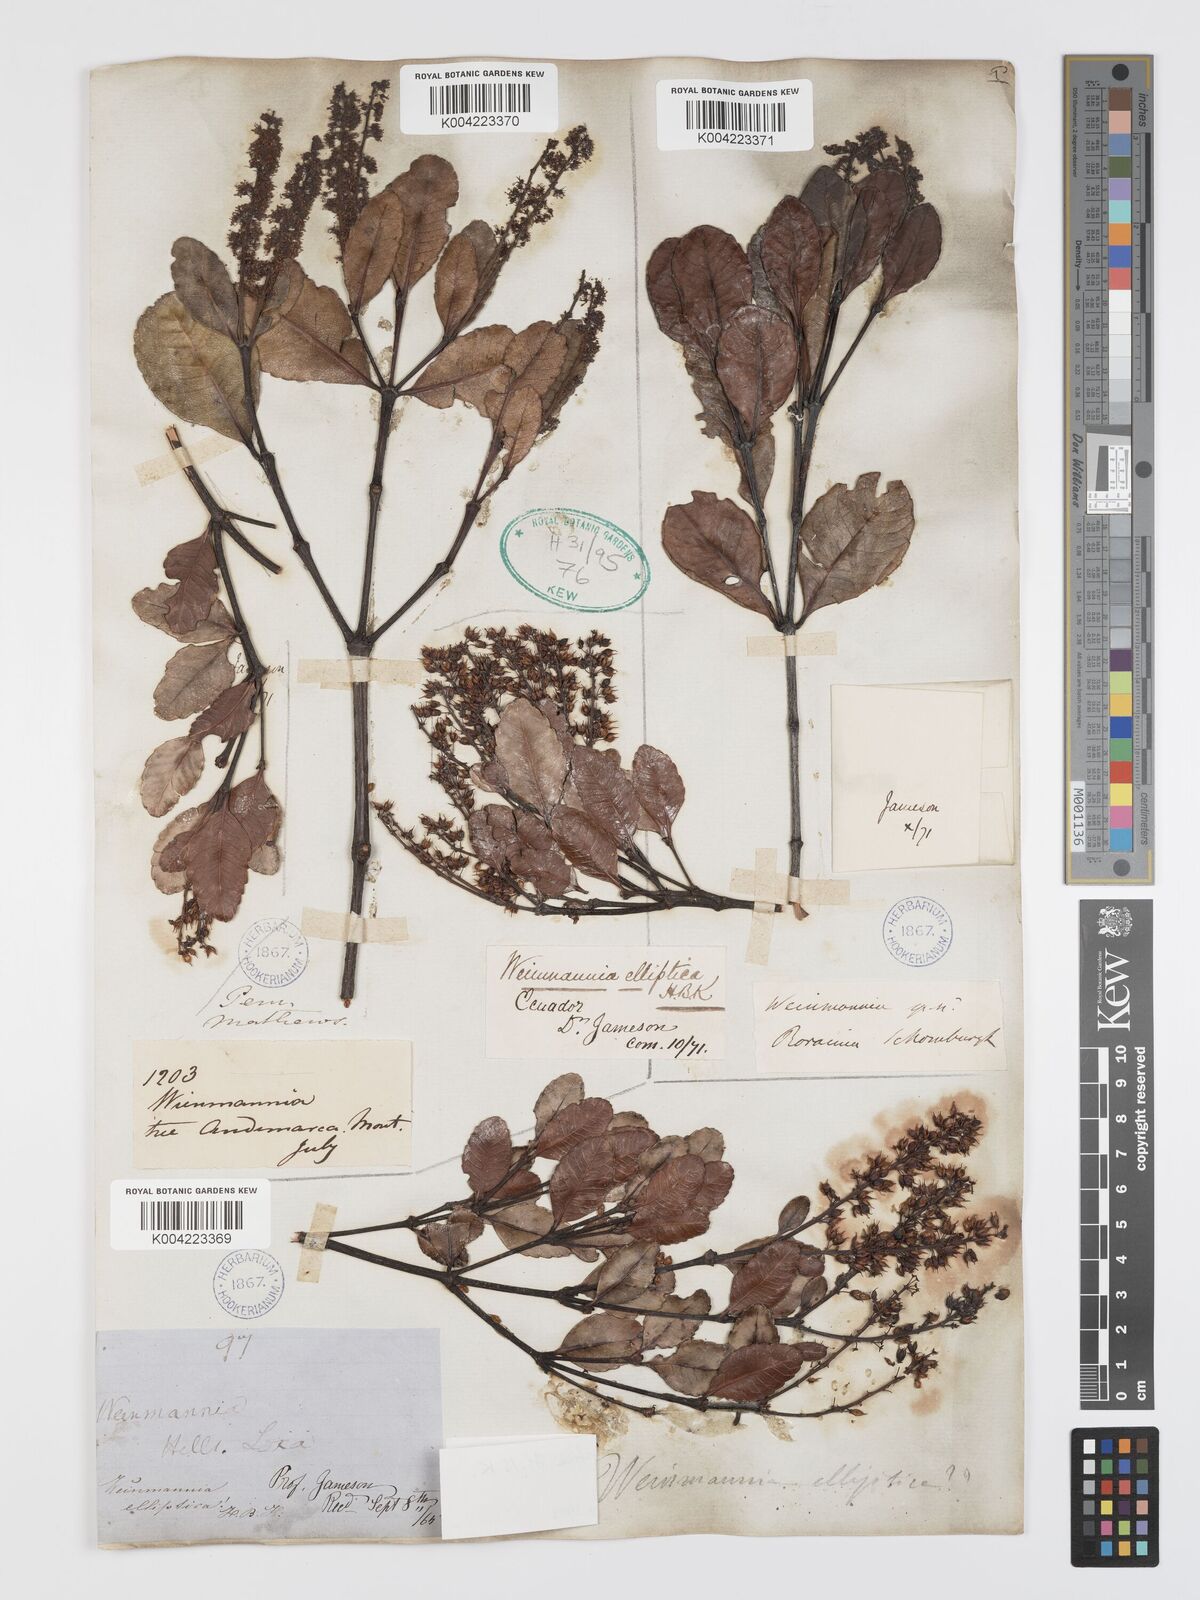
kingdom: Plantae
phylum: Tracheophyta
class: Magnoliopsida
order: Oxalidales
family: Cunoniaceae
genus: Weinmannia
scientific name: Weinmannia elliptica
